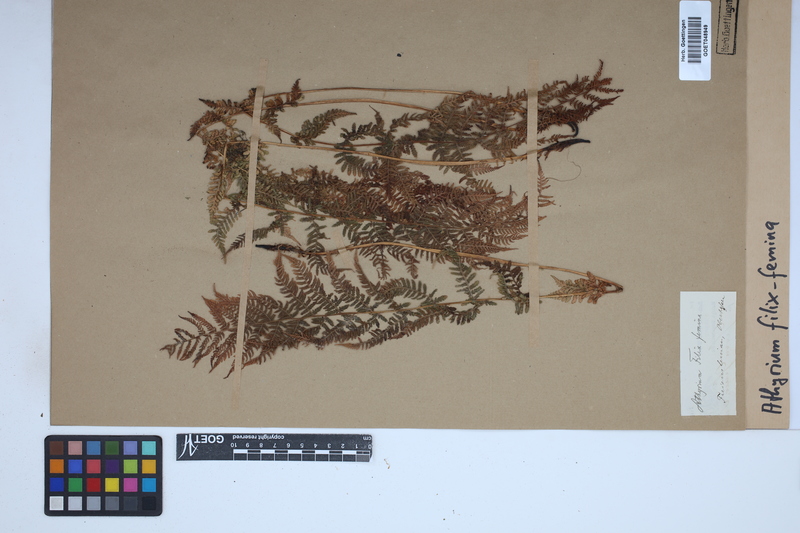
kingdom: Plantae
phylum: Tracheophyta
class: Polypodiopsida
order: Polypodiales
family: Athyriaceae
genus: Athyrium
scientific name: Athyrium filix-femina
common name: Lady fern
